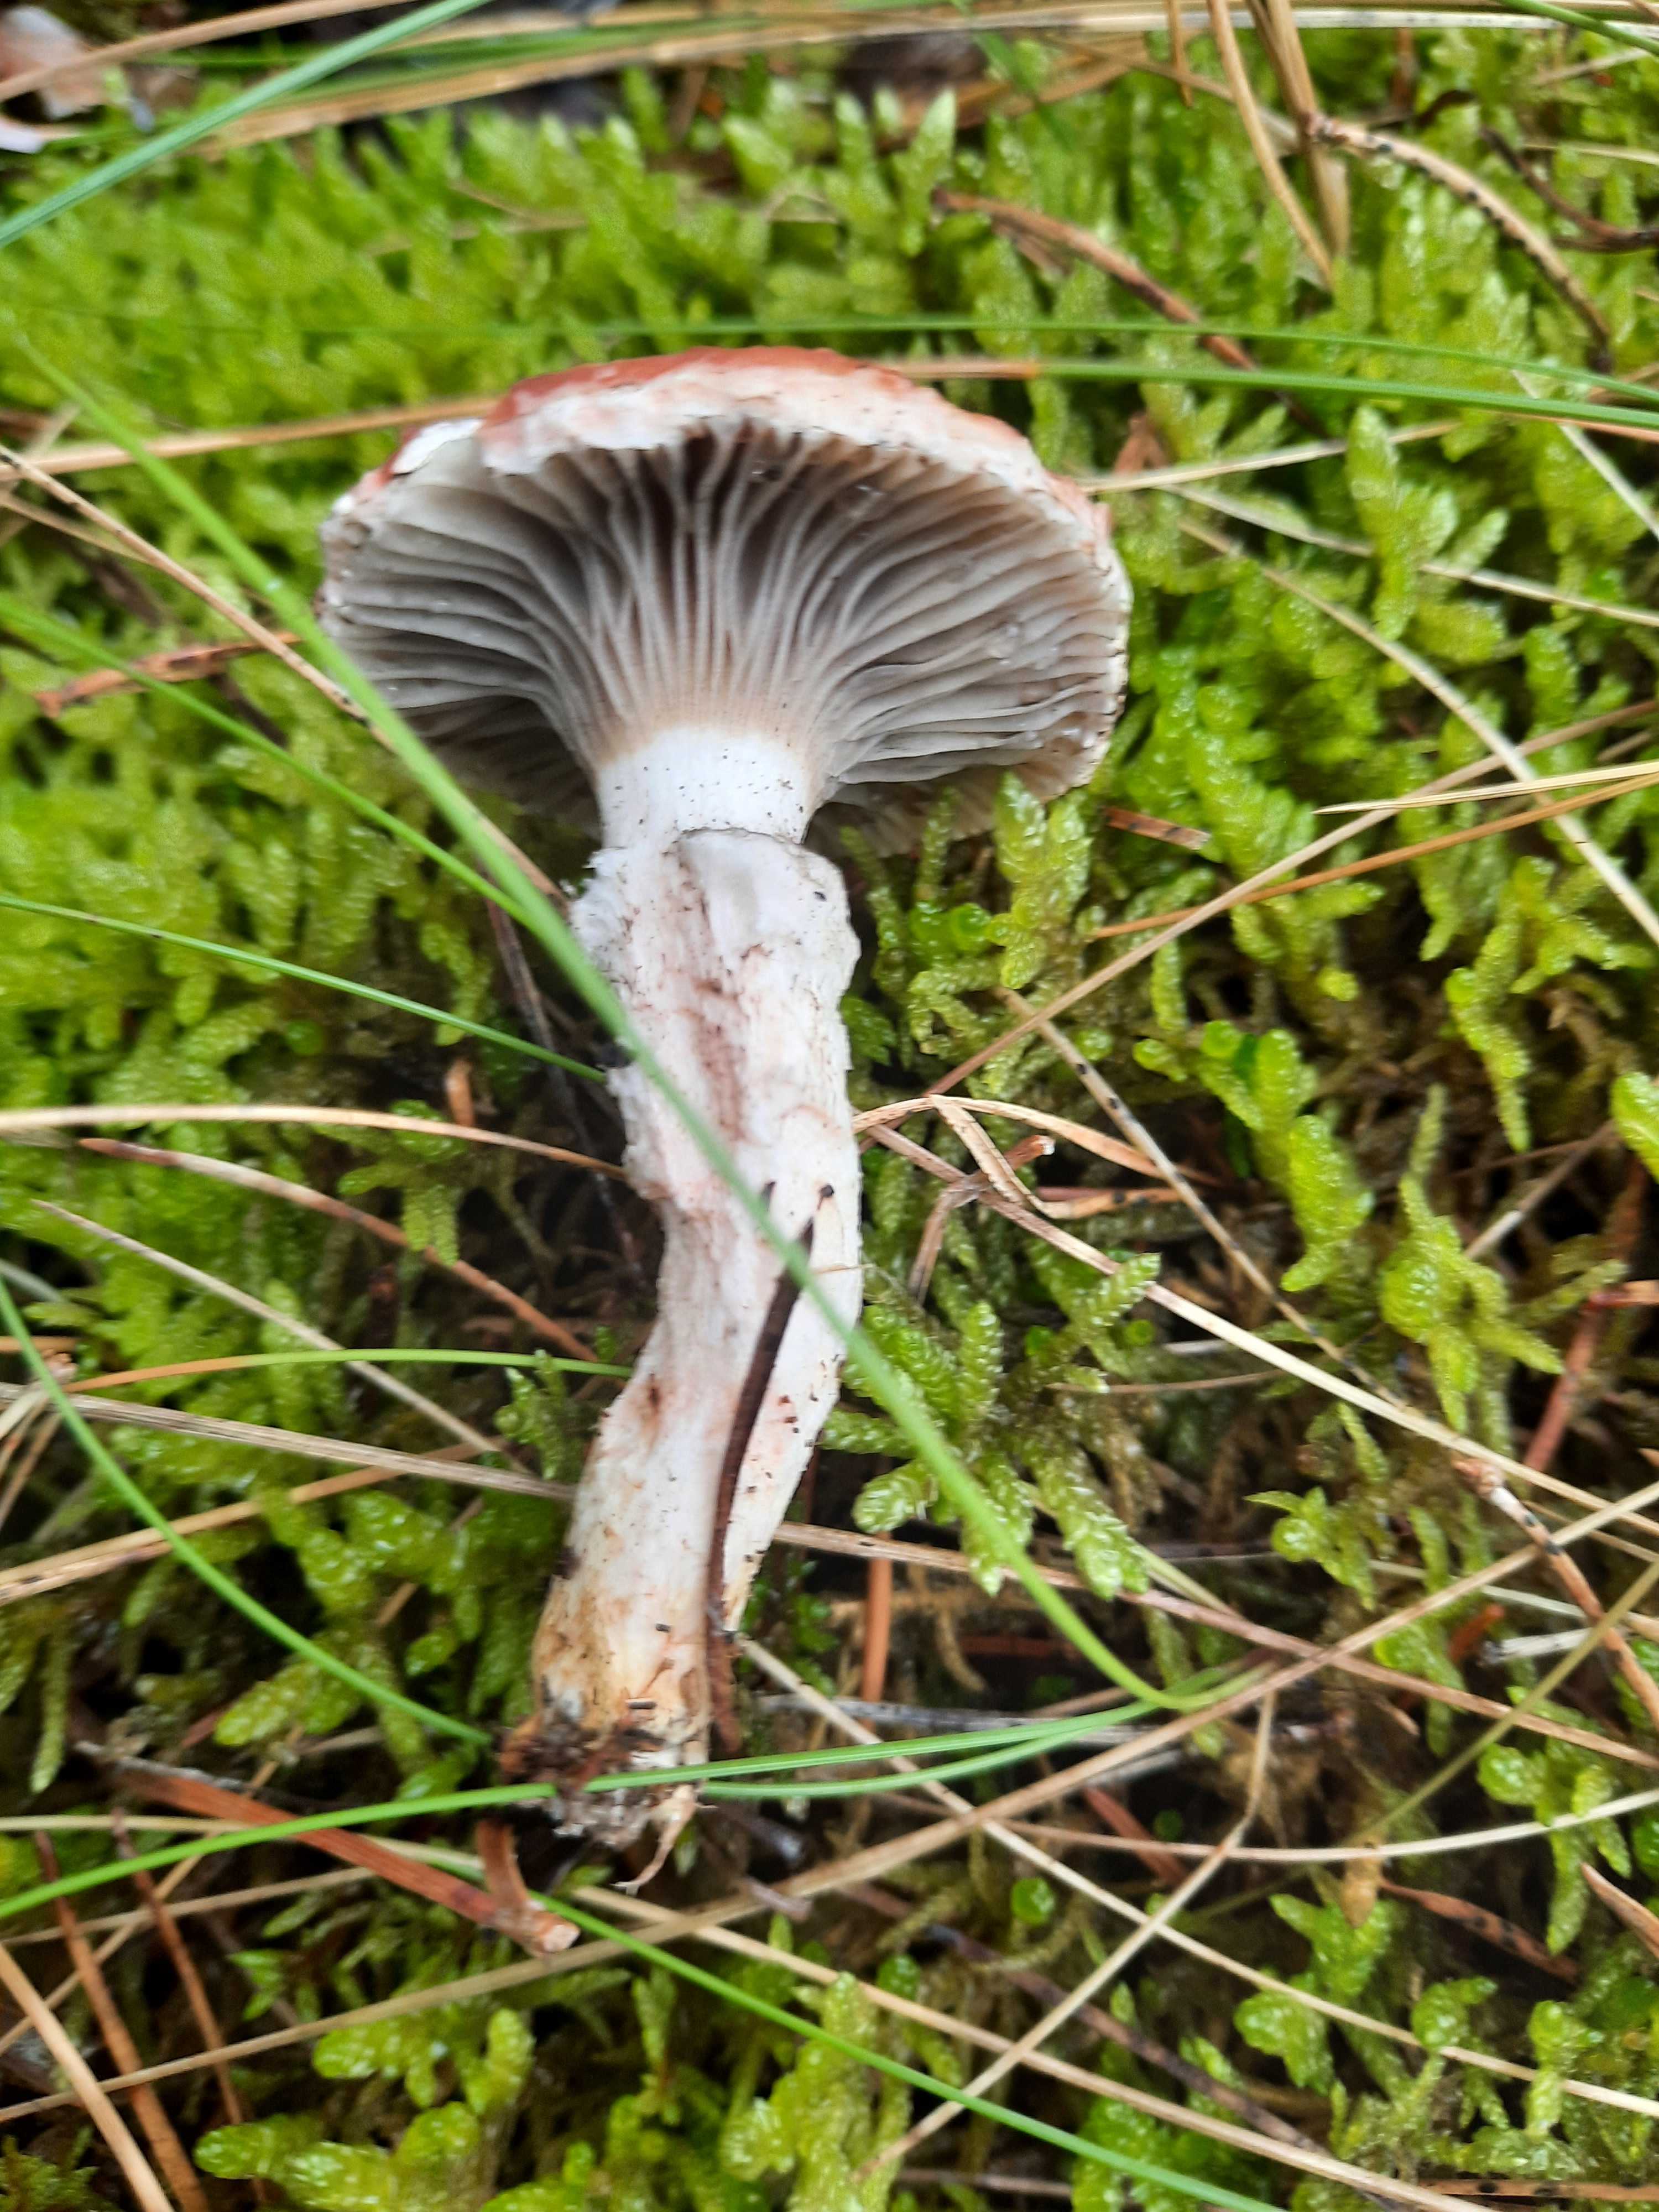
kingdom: Fungi
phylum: Basidiomycota
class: Agaricomycetes
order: Boletales
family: Gomphidiaceae
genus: Gomphidius
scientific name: Gomphidius roseus
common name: rosenrød slimslør
